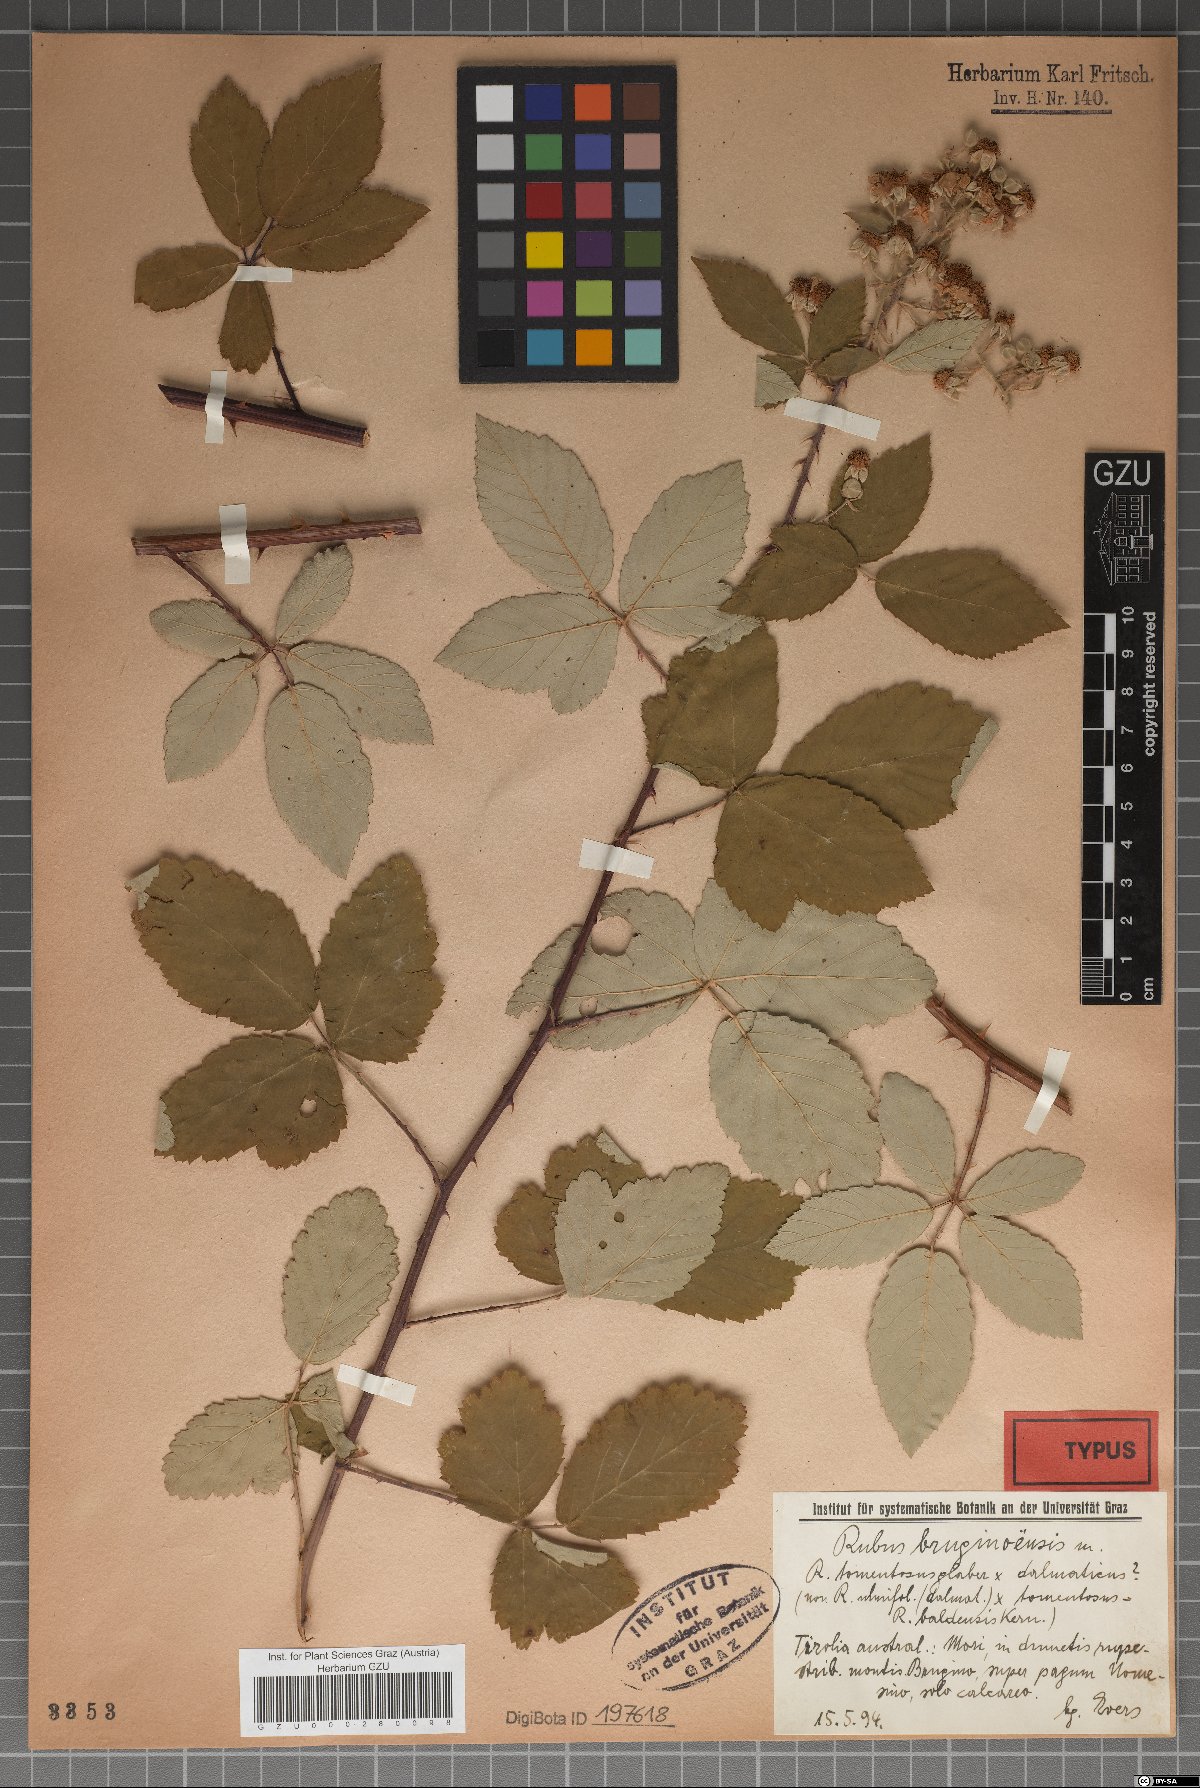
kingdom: Plantae
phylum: Tracheophyta
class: Magnoliopsida
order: Rosales
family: Rosaceae
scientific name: Rosaceae
